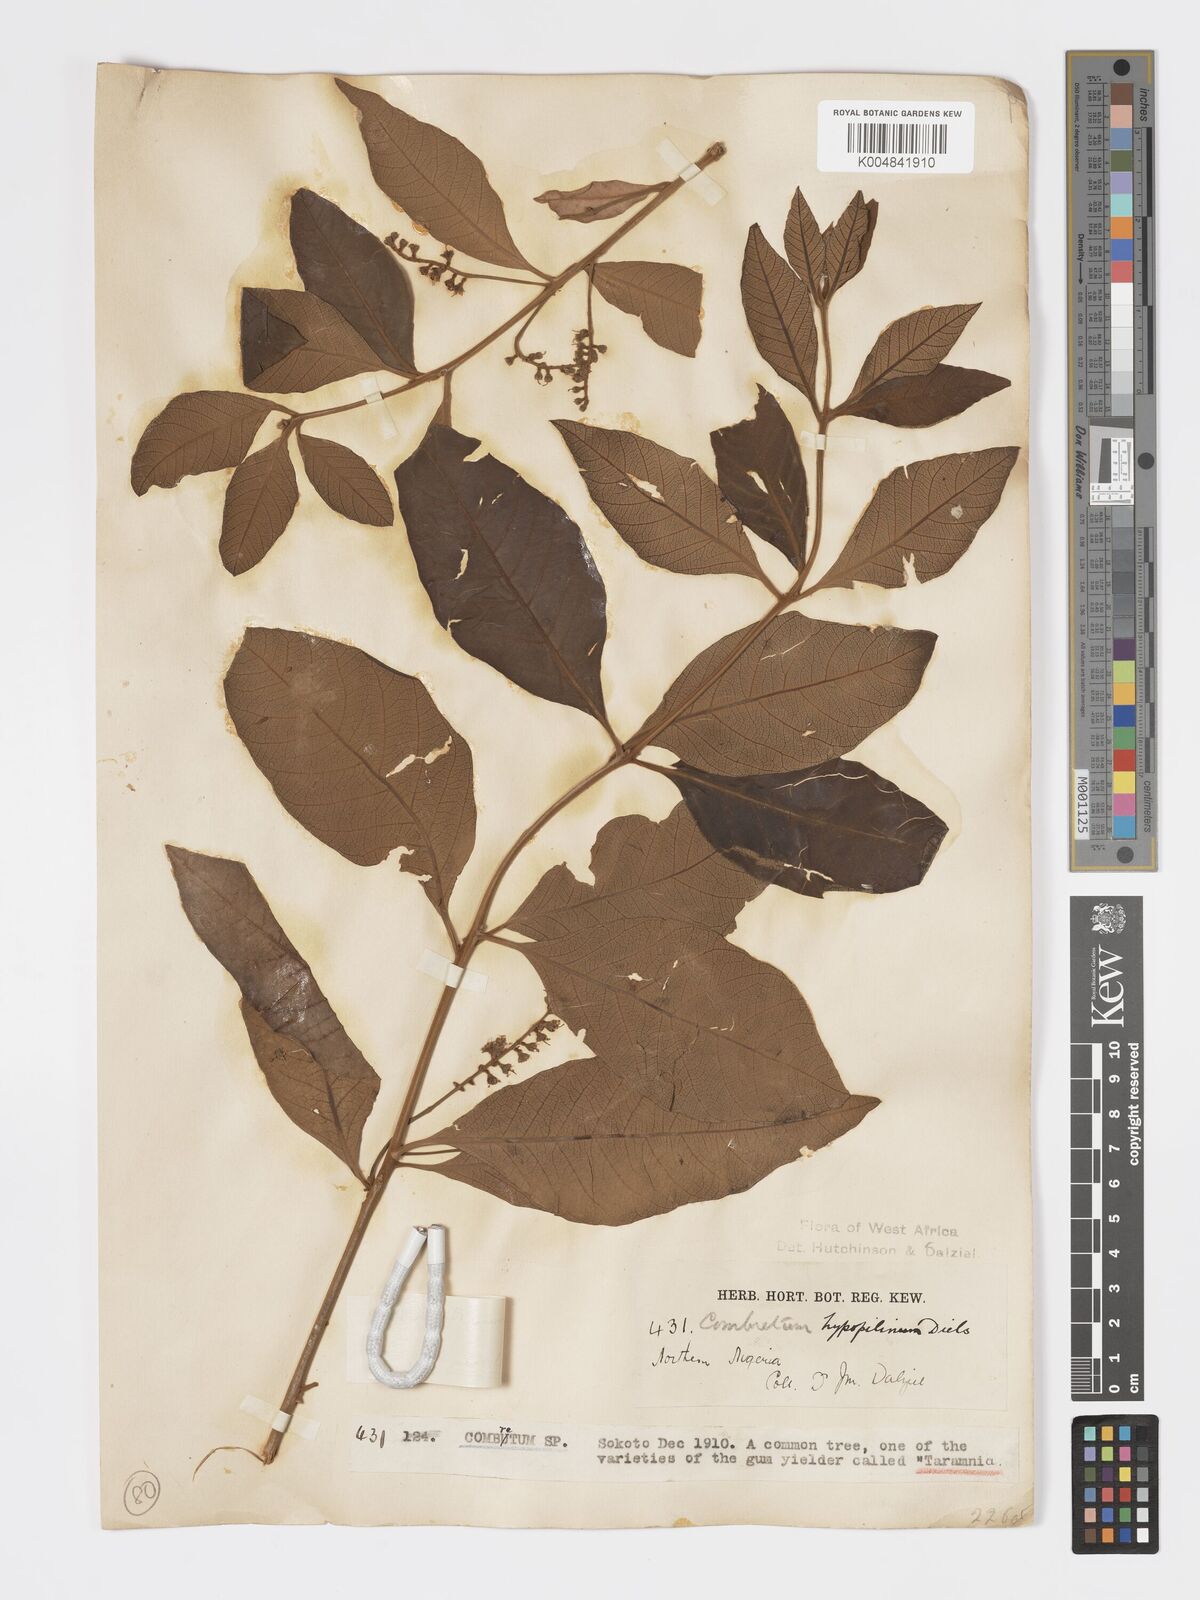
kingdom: Plantae
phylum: Tracheophyta
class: Magnoliopsida
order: Myrtales
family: Combretaceae
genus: Combretum
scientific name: Combretum
